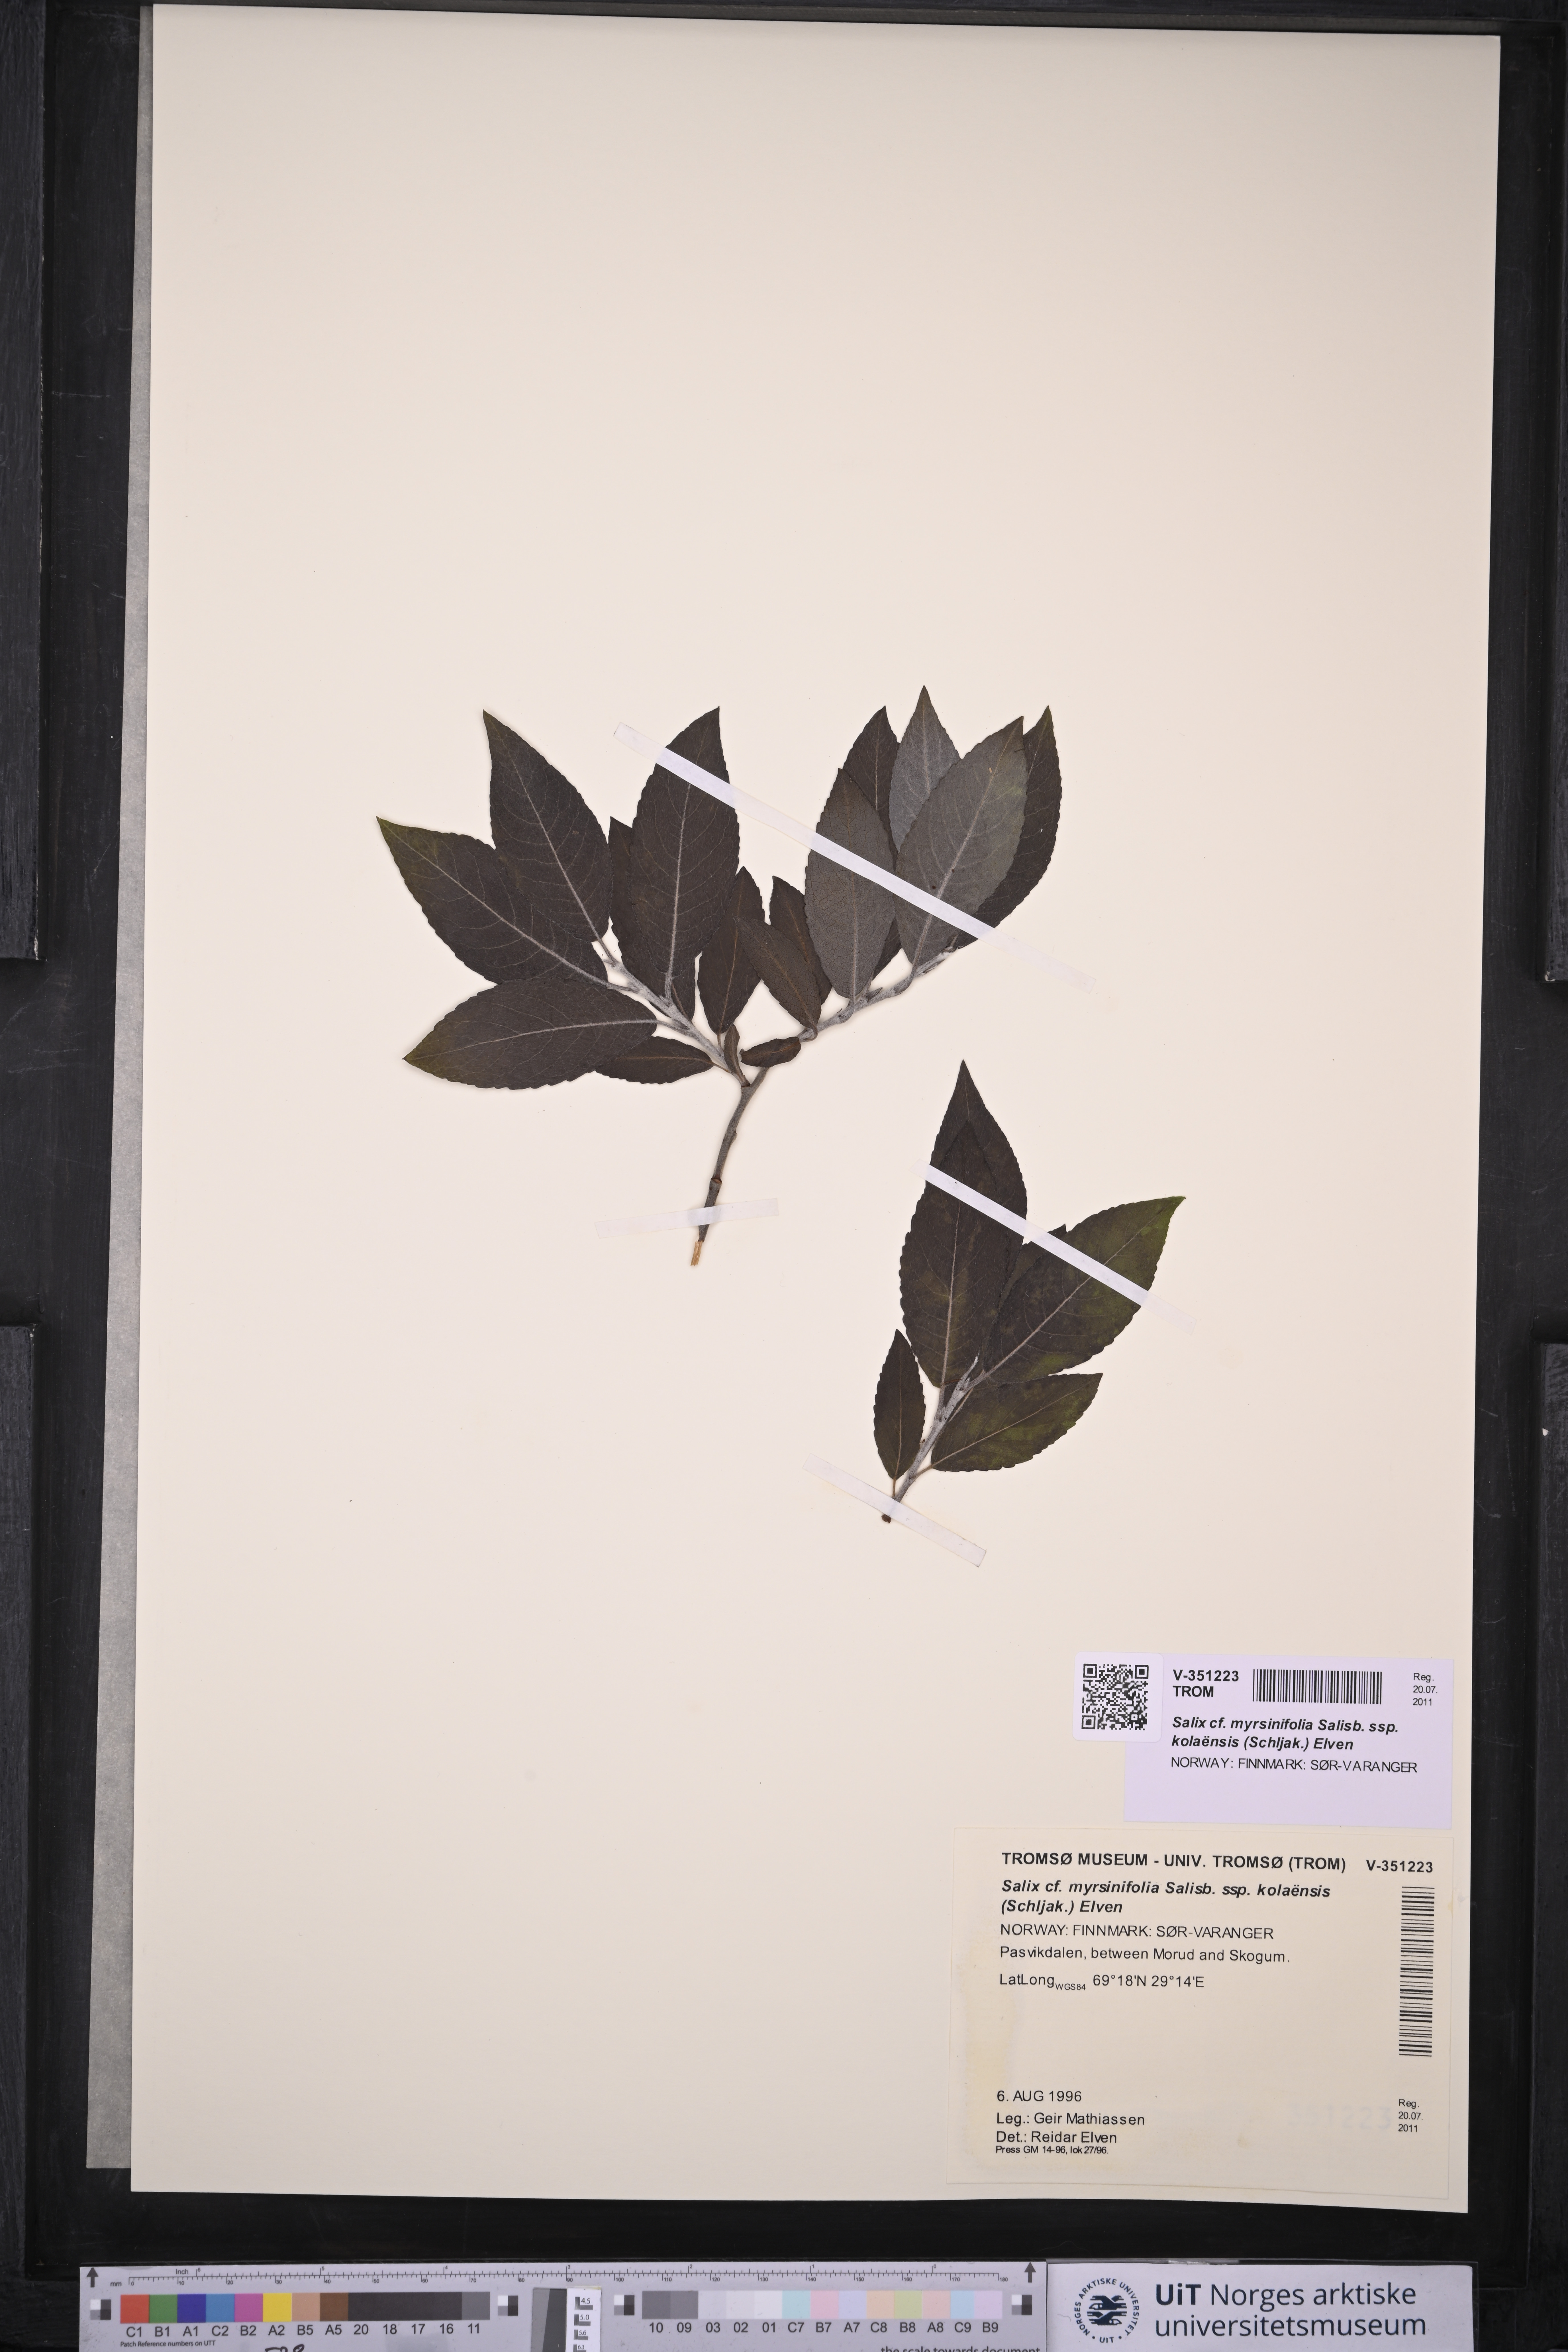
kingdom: Plantae
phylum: Tracheophyta
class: Magnoliopsida
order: Malpighiales
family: Salicaceae
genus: Salix
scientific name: Salix myrsinifolia
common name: Dark-leaved willow
